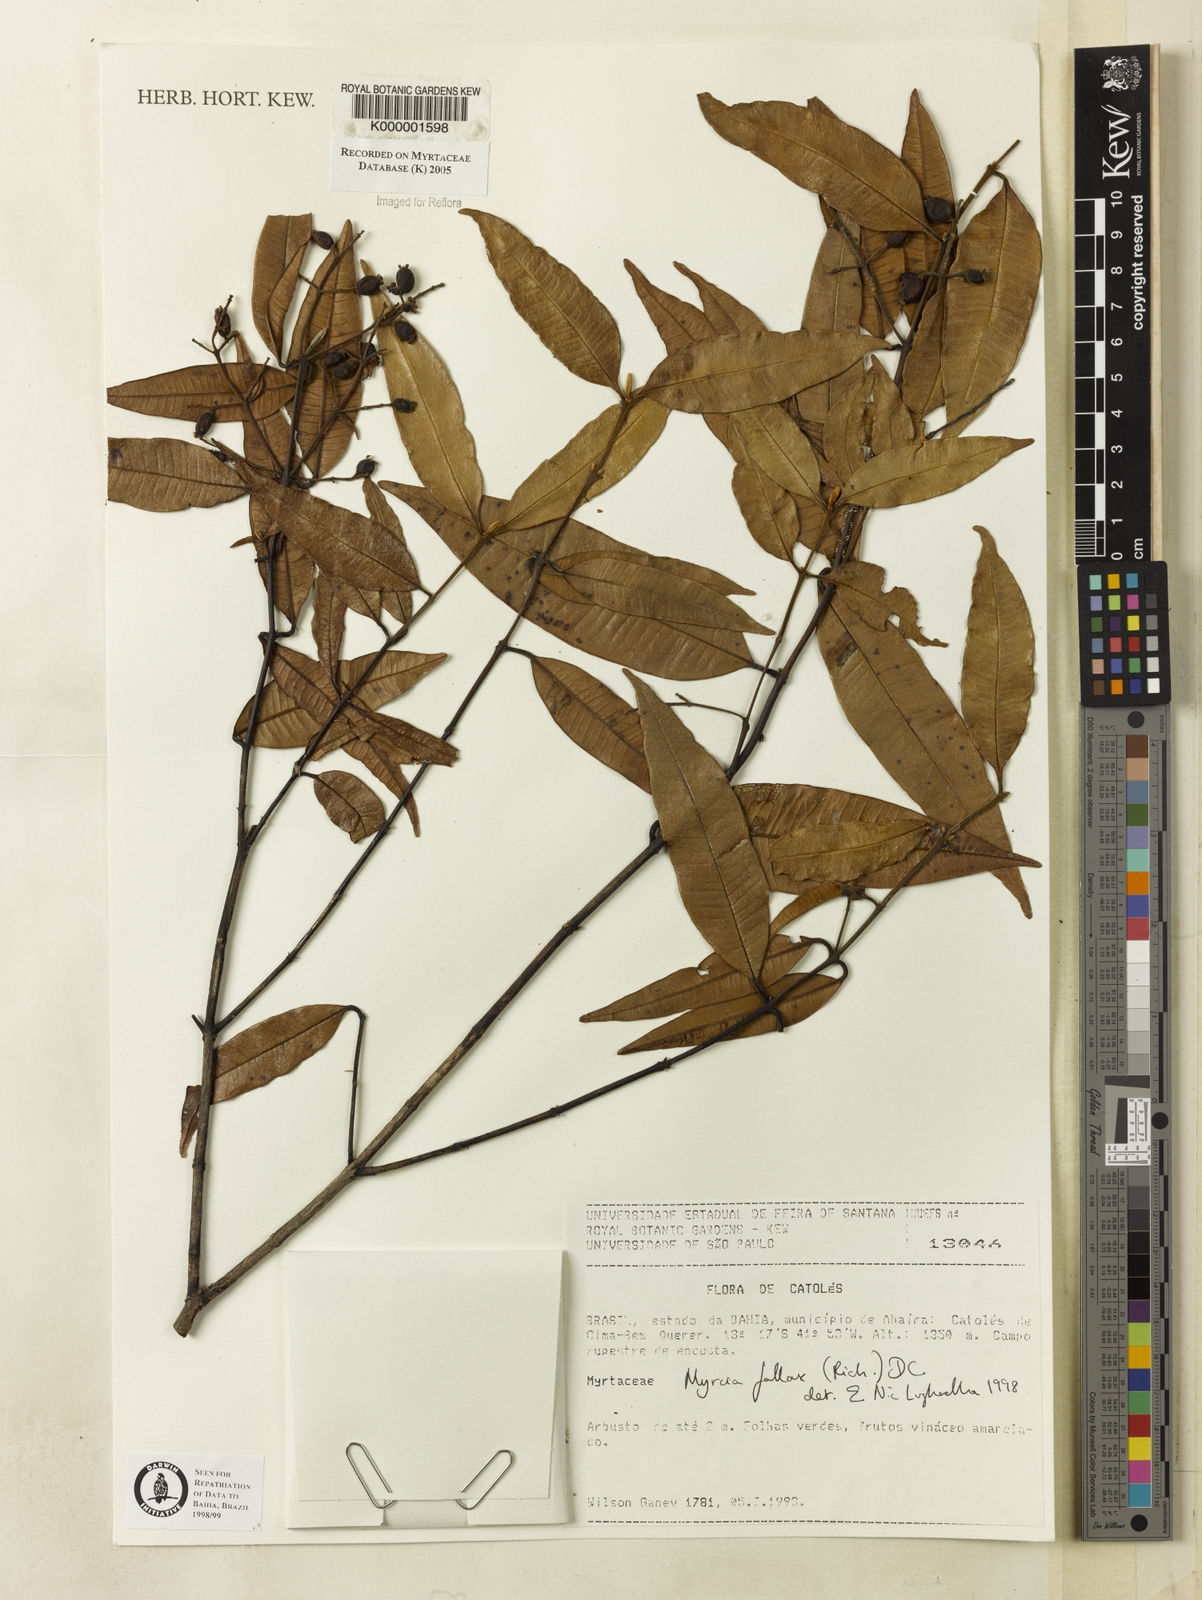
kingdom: Plantae
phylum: Tracheophyta
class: Magnoliopsida
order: Myrtales
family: Myrtaceae
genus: Myrcia
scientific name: Myrcia splendens
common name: Surinam cherry
